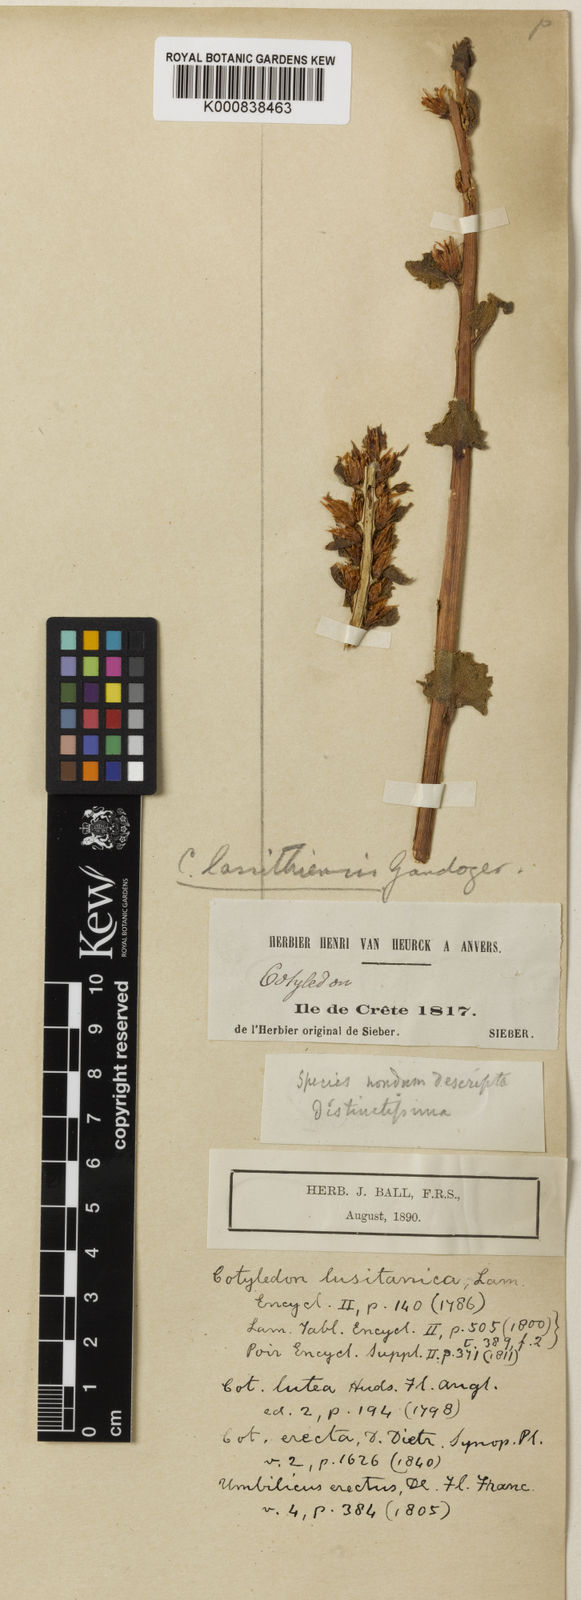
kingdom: Plantae
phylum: Tracheophyta
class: Magnoliopsida
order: Saxifragales
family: Crassulaceae
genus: Umbilicus
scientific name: Umbilicus luteus
